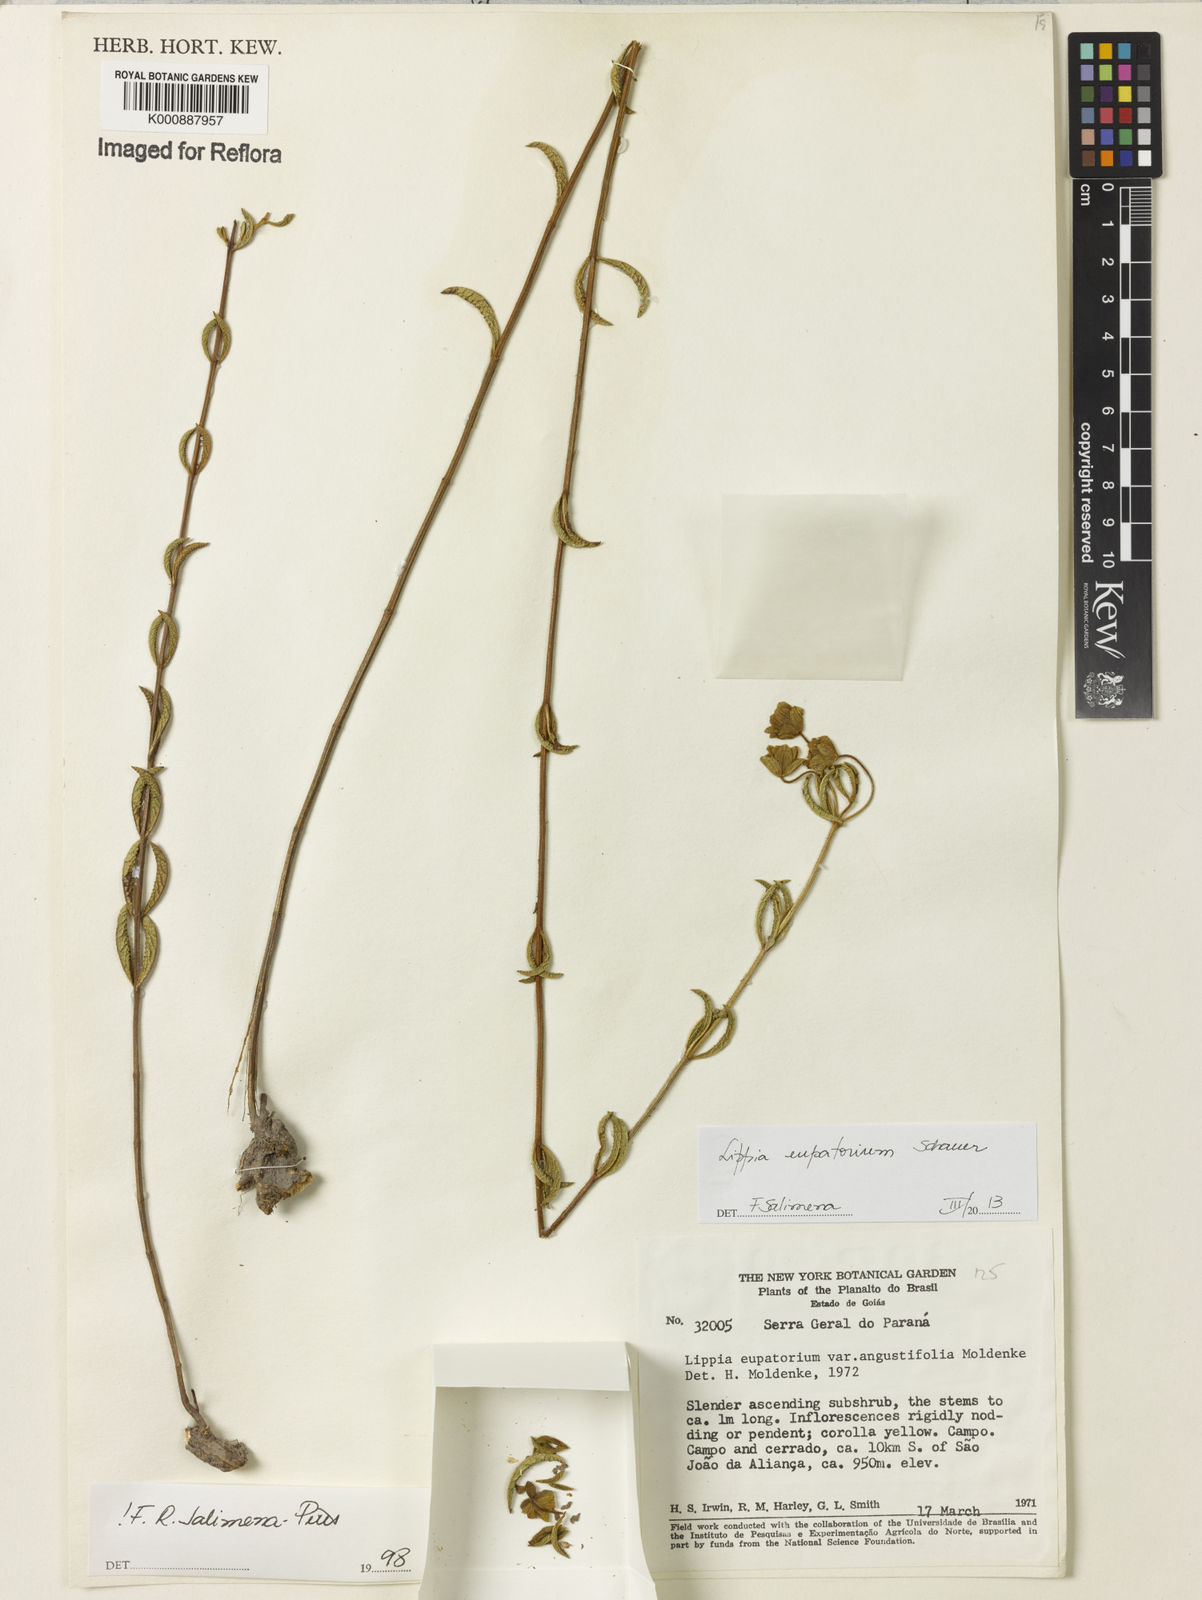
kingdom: Plantae
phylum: Tracheophyta
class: Magnoliopsida
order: Lamiales
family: Verbenaceae
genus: Lippia
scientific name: Lippia eupatorium
